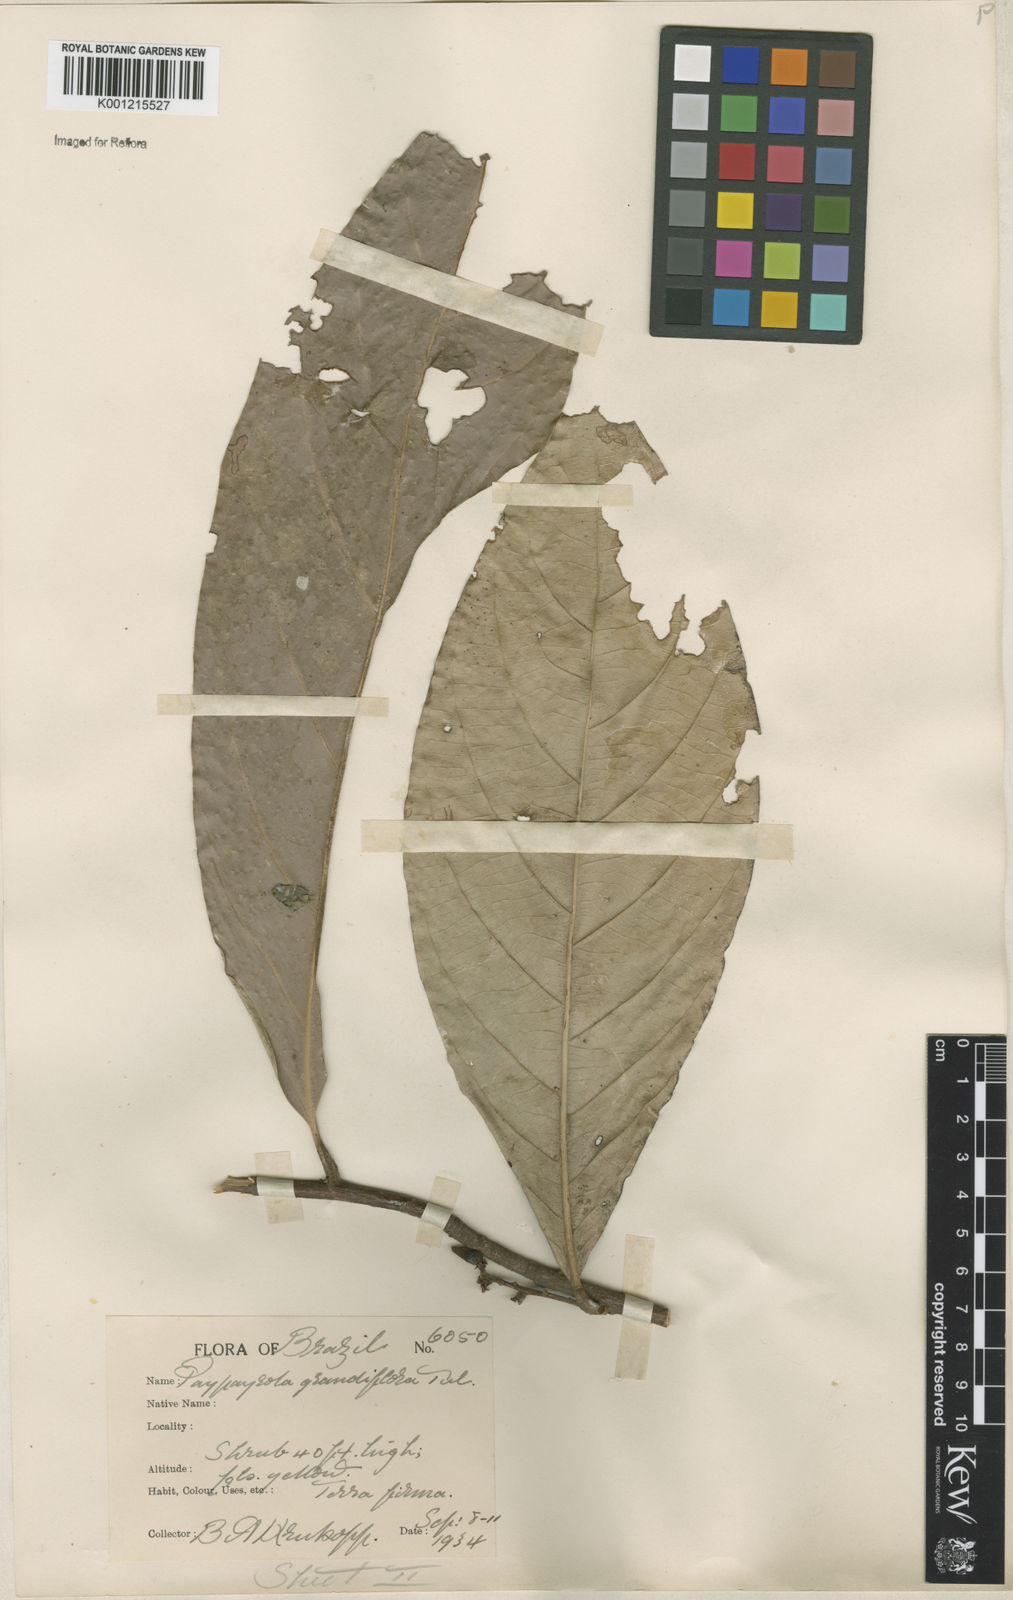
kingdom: Plantae
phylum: Tracheophyta
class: Magnoliopsida
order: Malpighiales
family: Violaceae
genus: Paypayrola
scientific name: Paypayrola grandiflora
